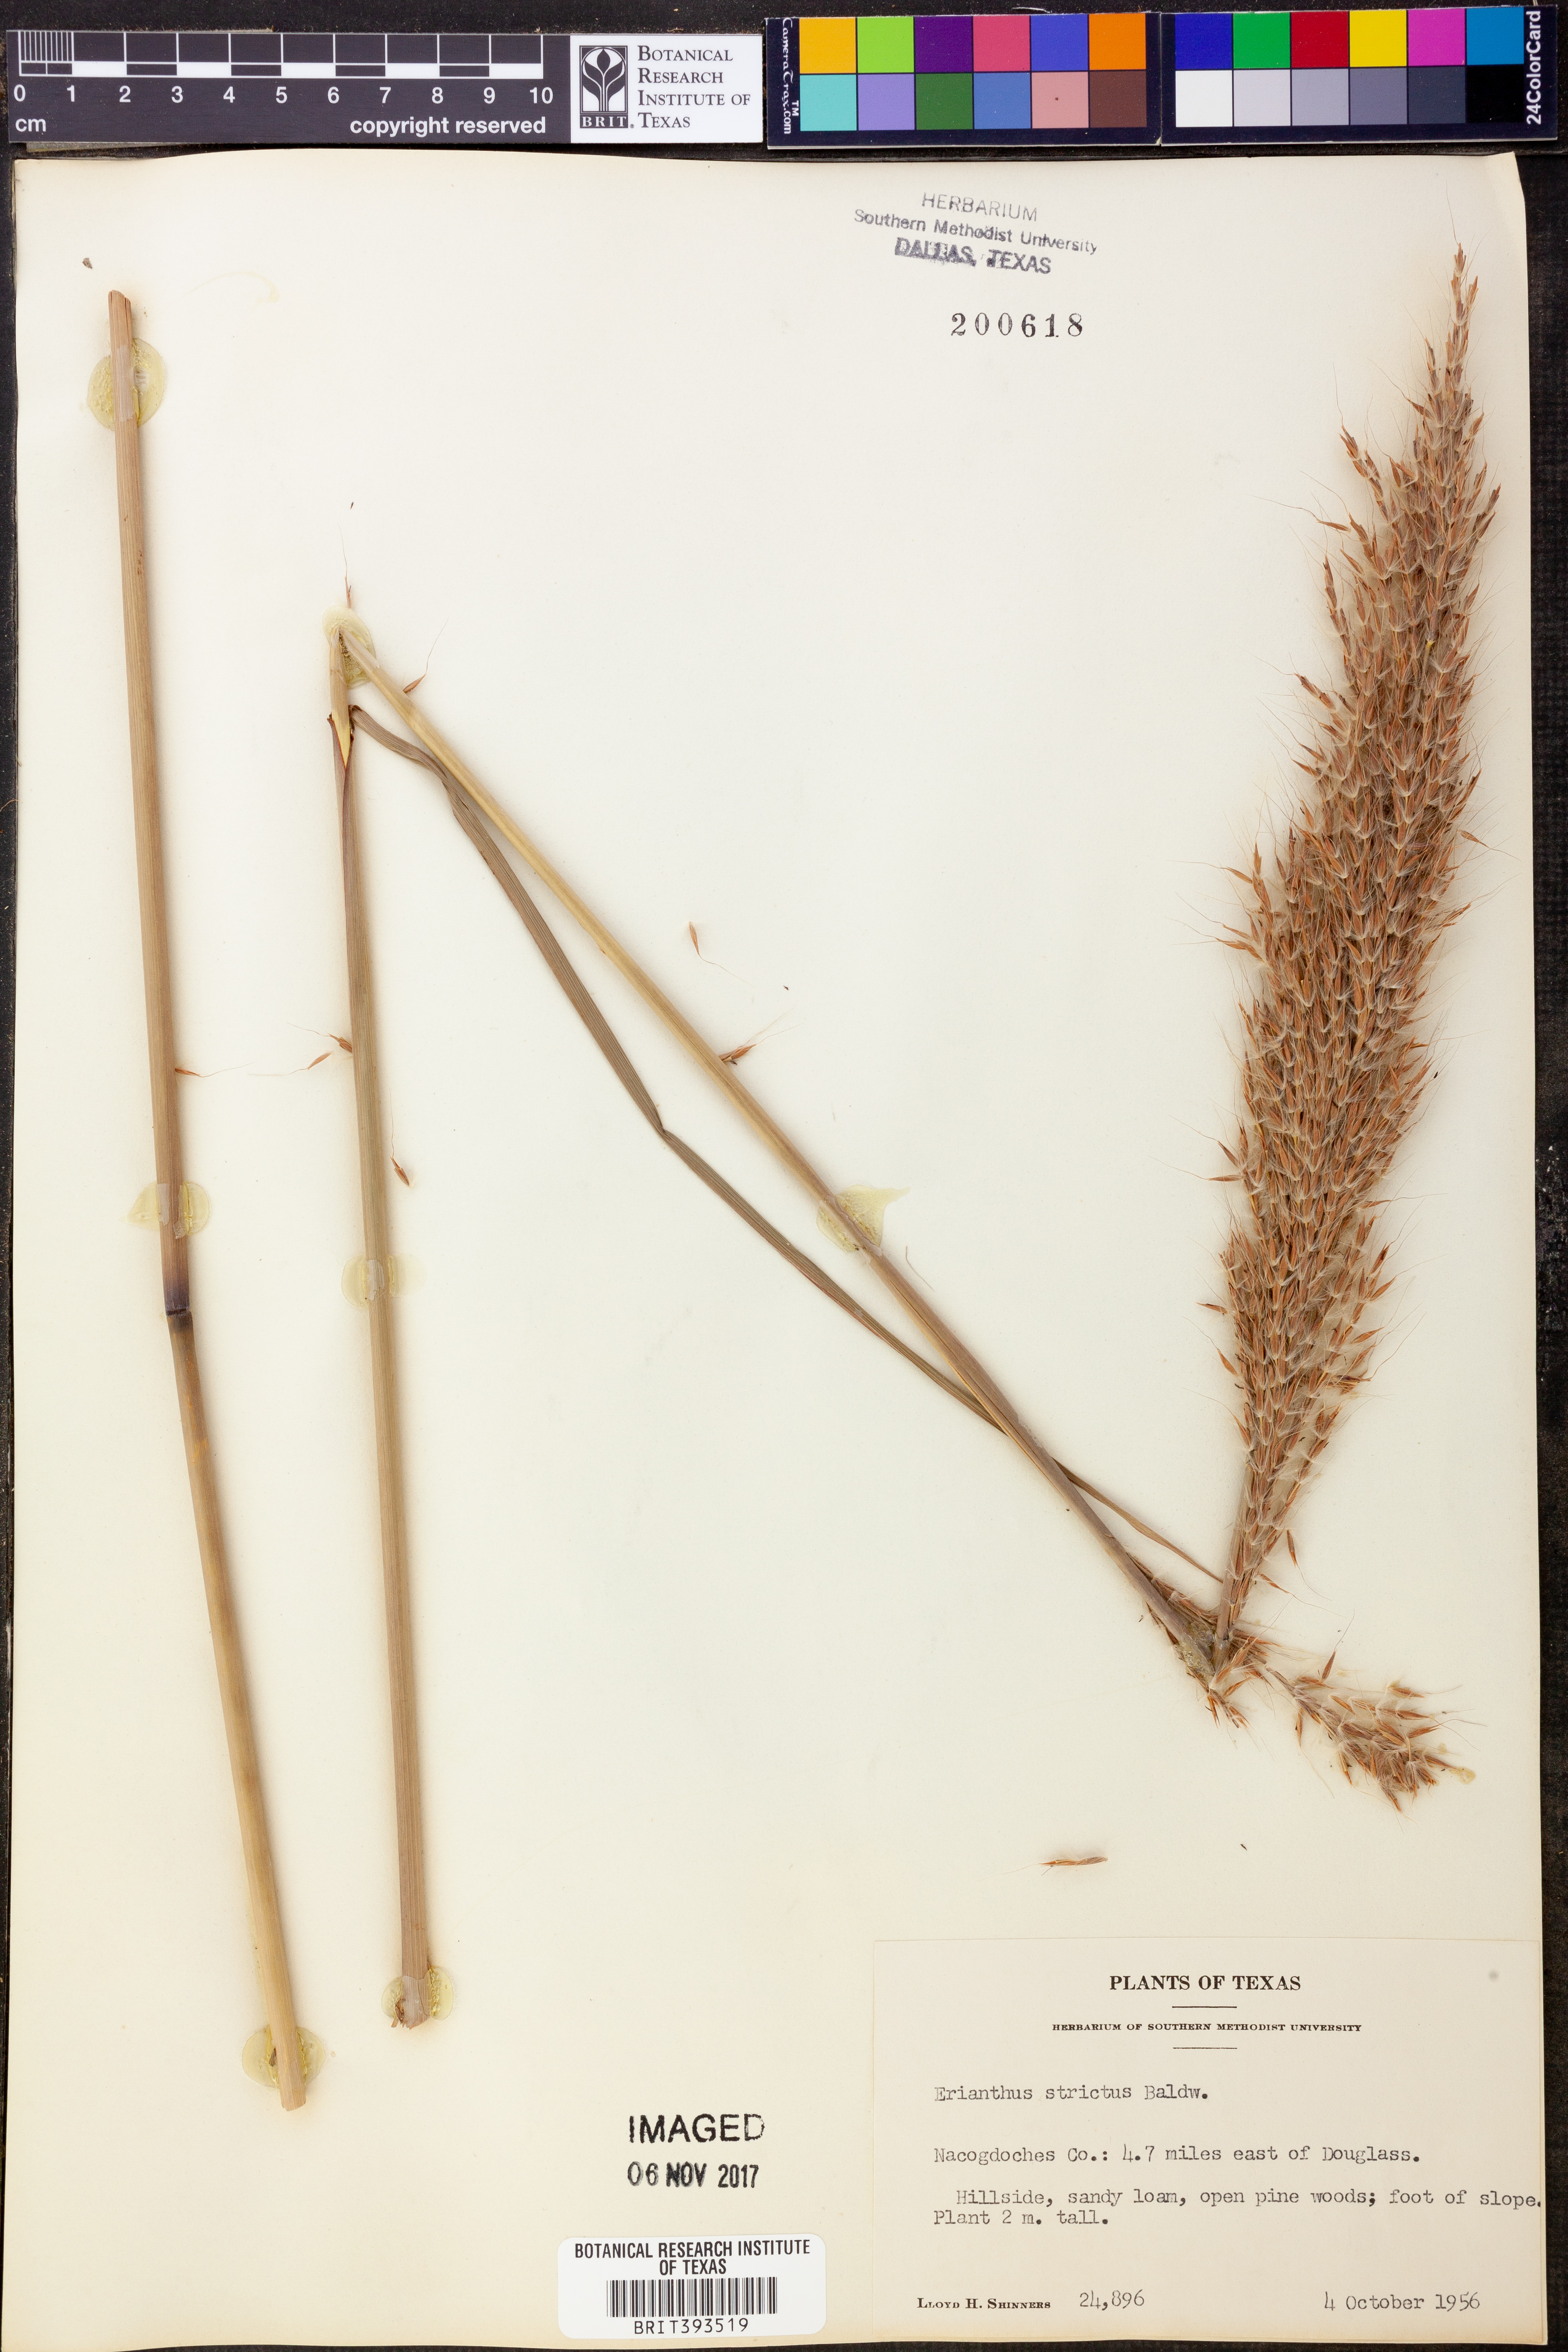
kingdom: Plantae
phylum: Tracheophyta
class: Liliopsida
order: Poales
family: Poaceae
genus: Erianthus
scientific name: Erianthus strictus
